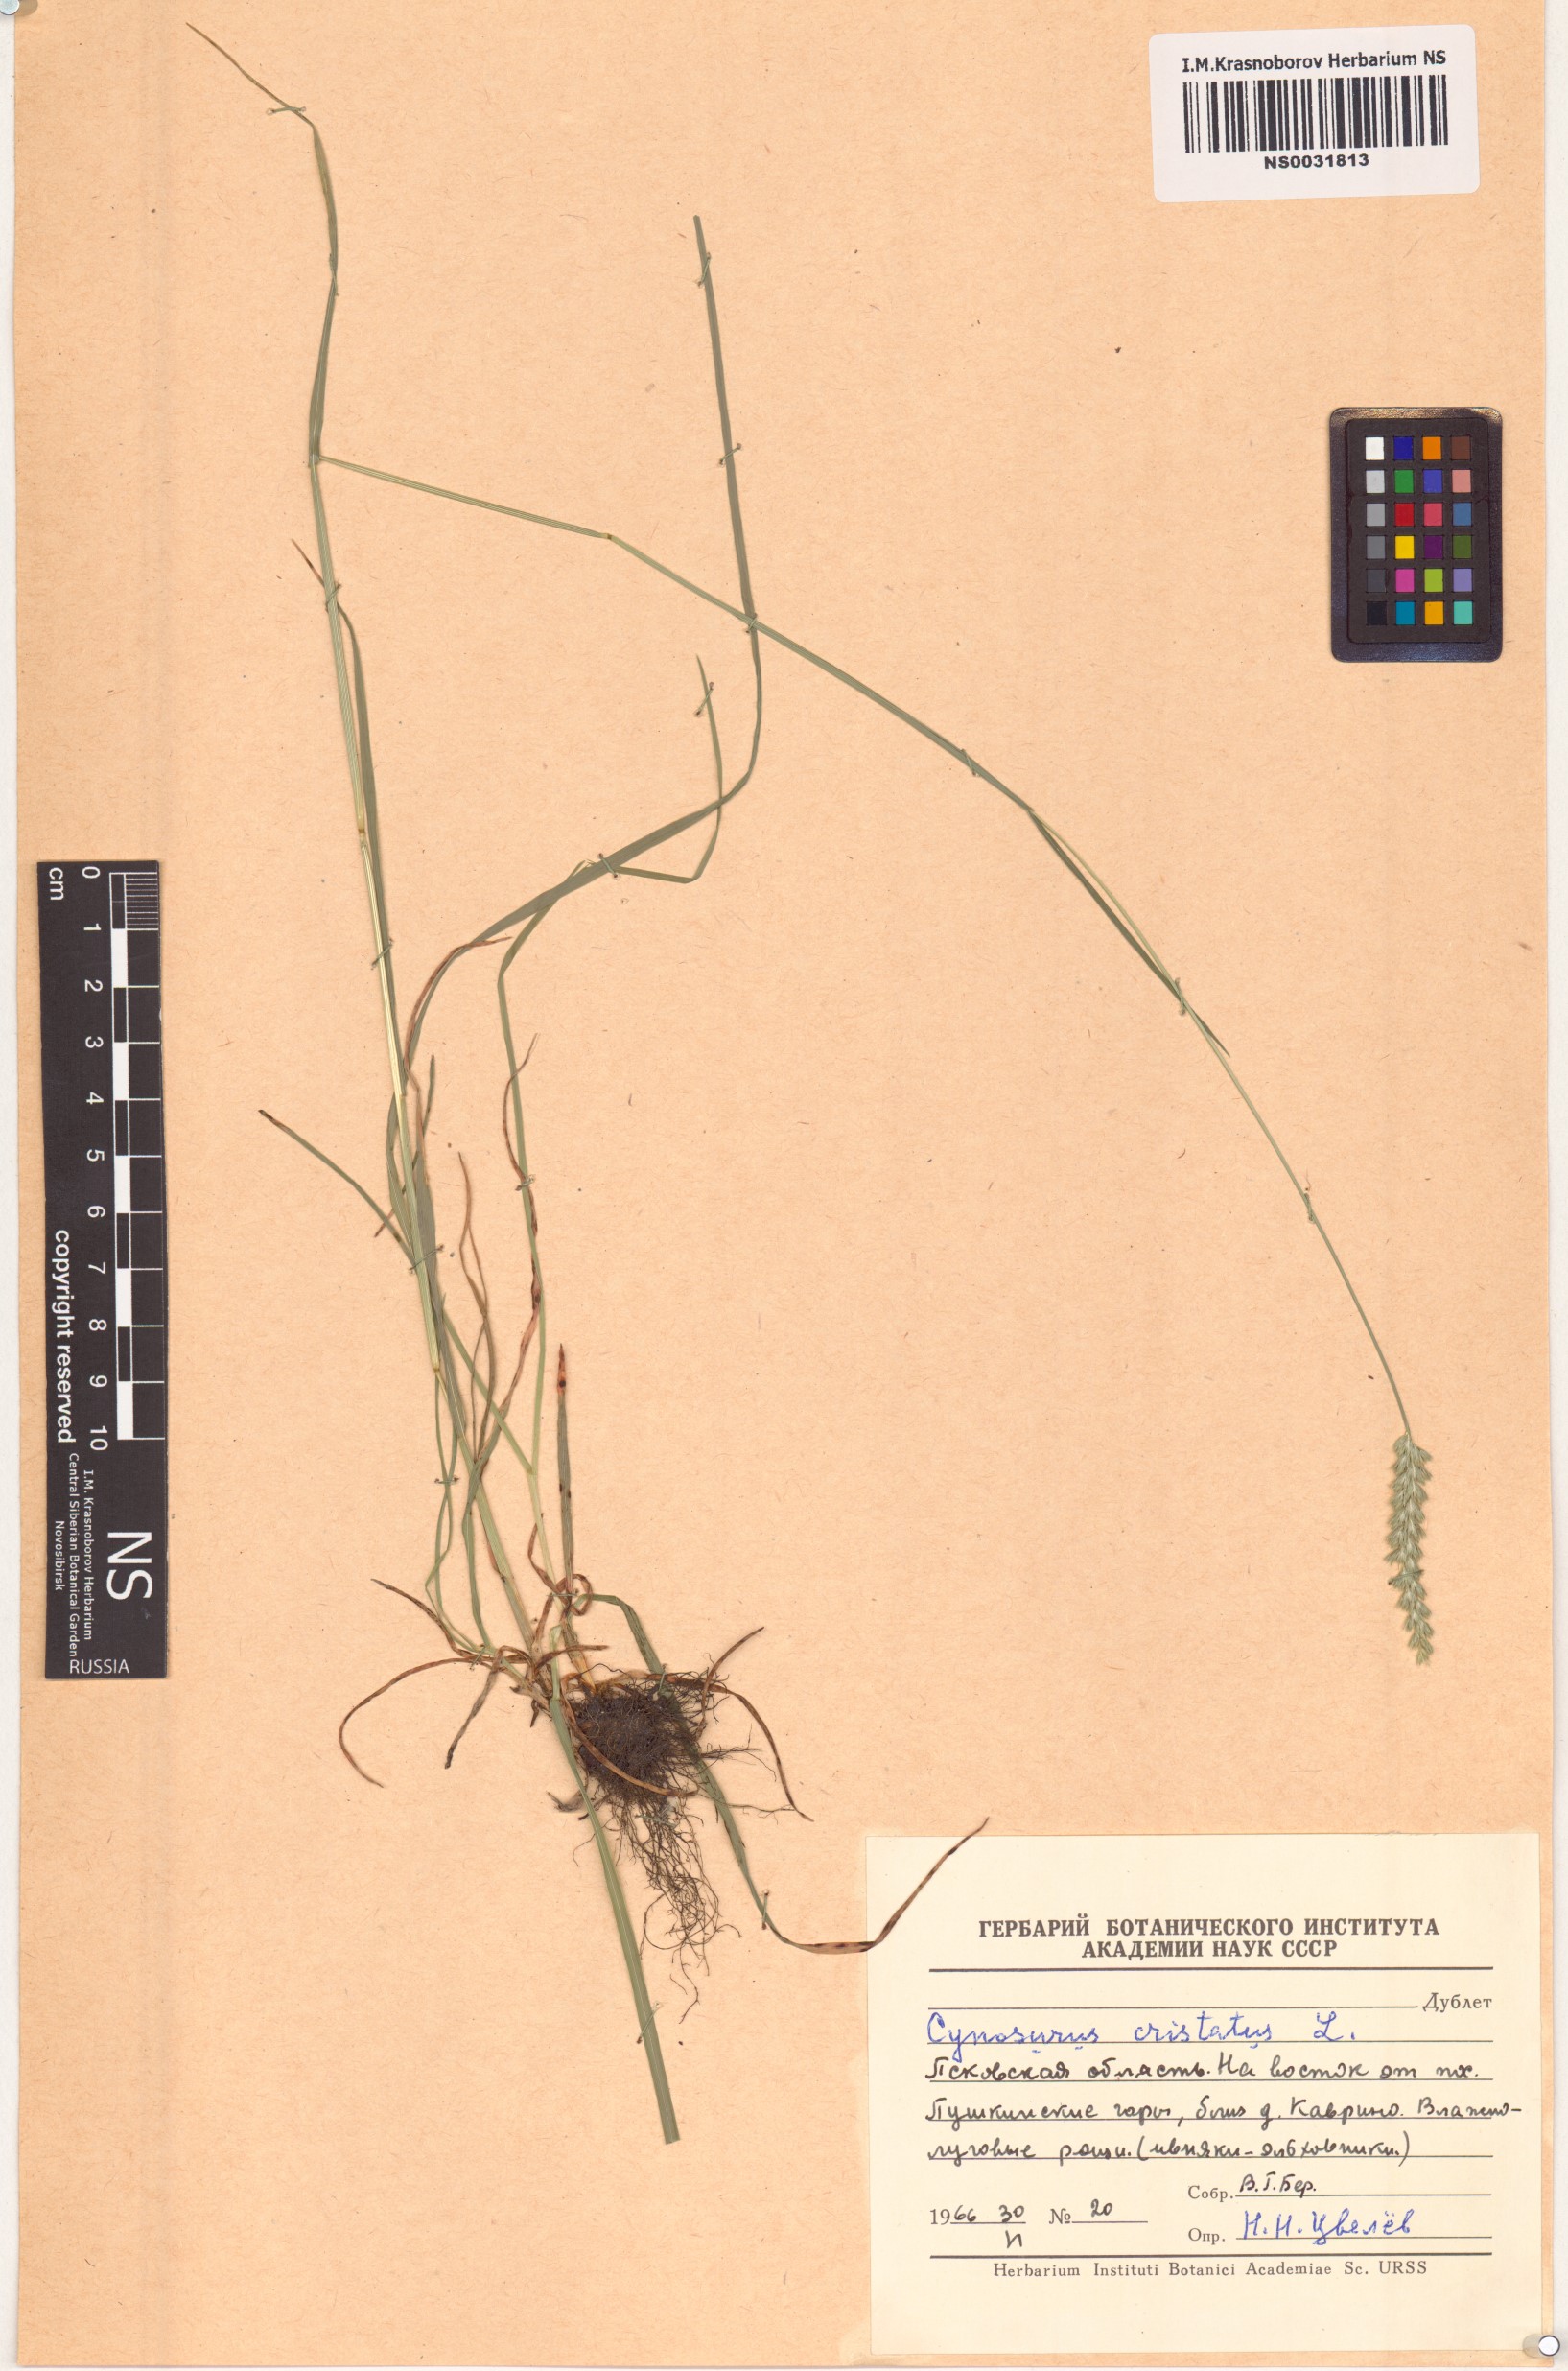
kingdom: Plantae
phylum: Tracheophyta
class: Liliopsida
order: Poales
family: Poaceae
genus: Cynosurus
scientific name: Cynosurus cristatus
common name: Crested dog's-tail
